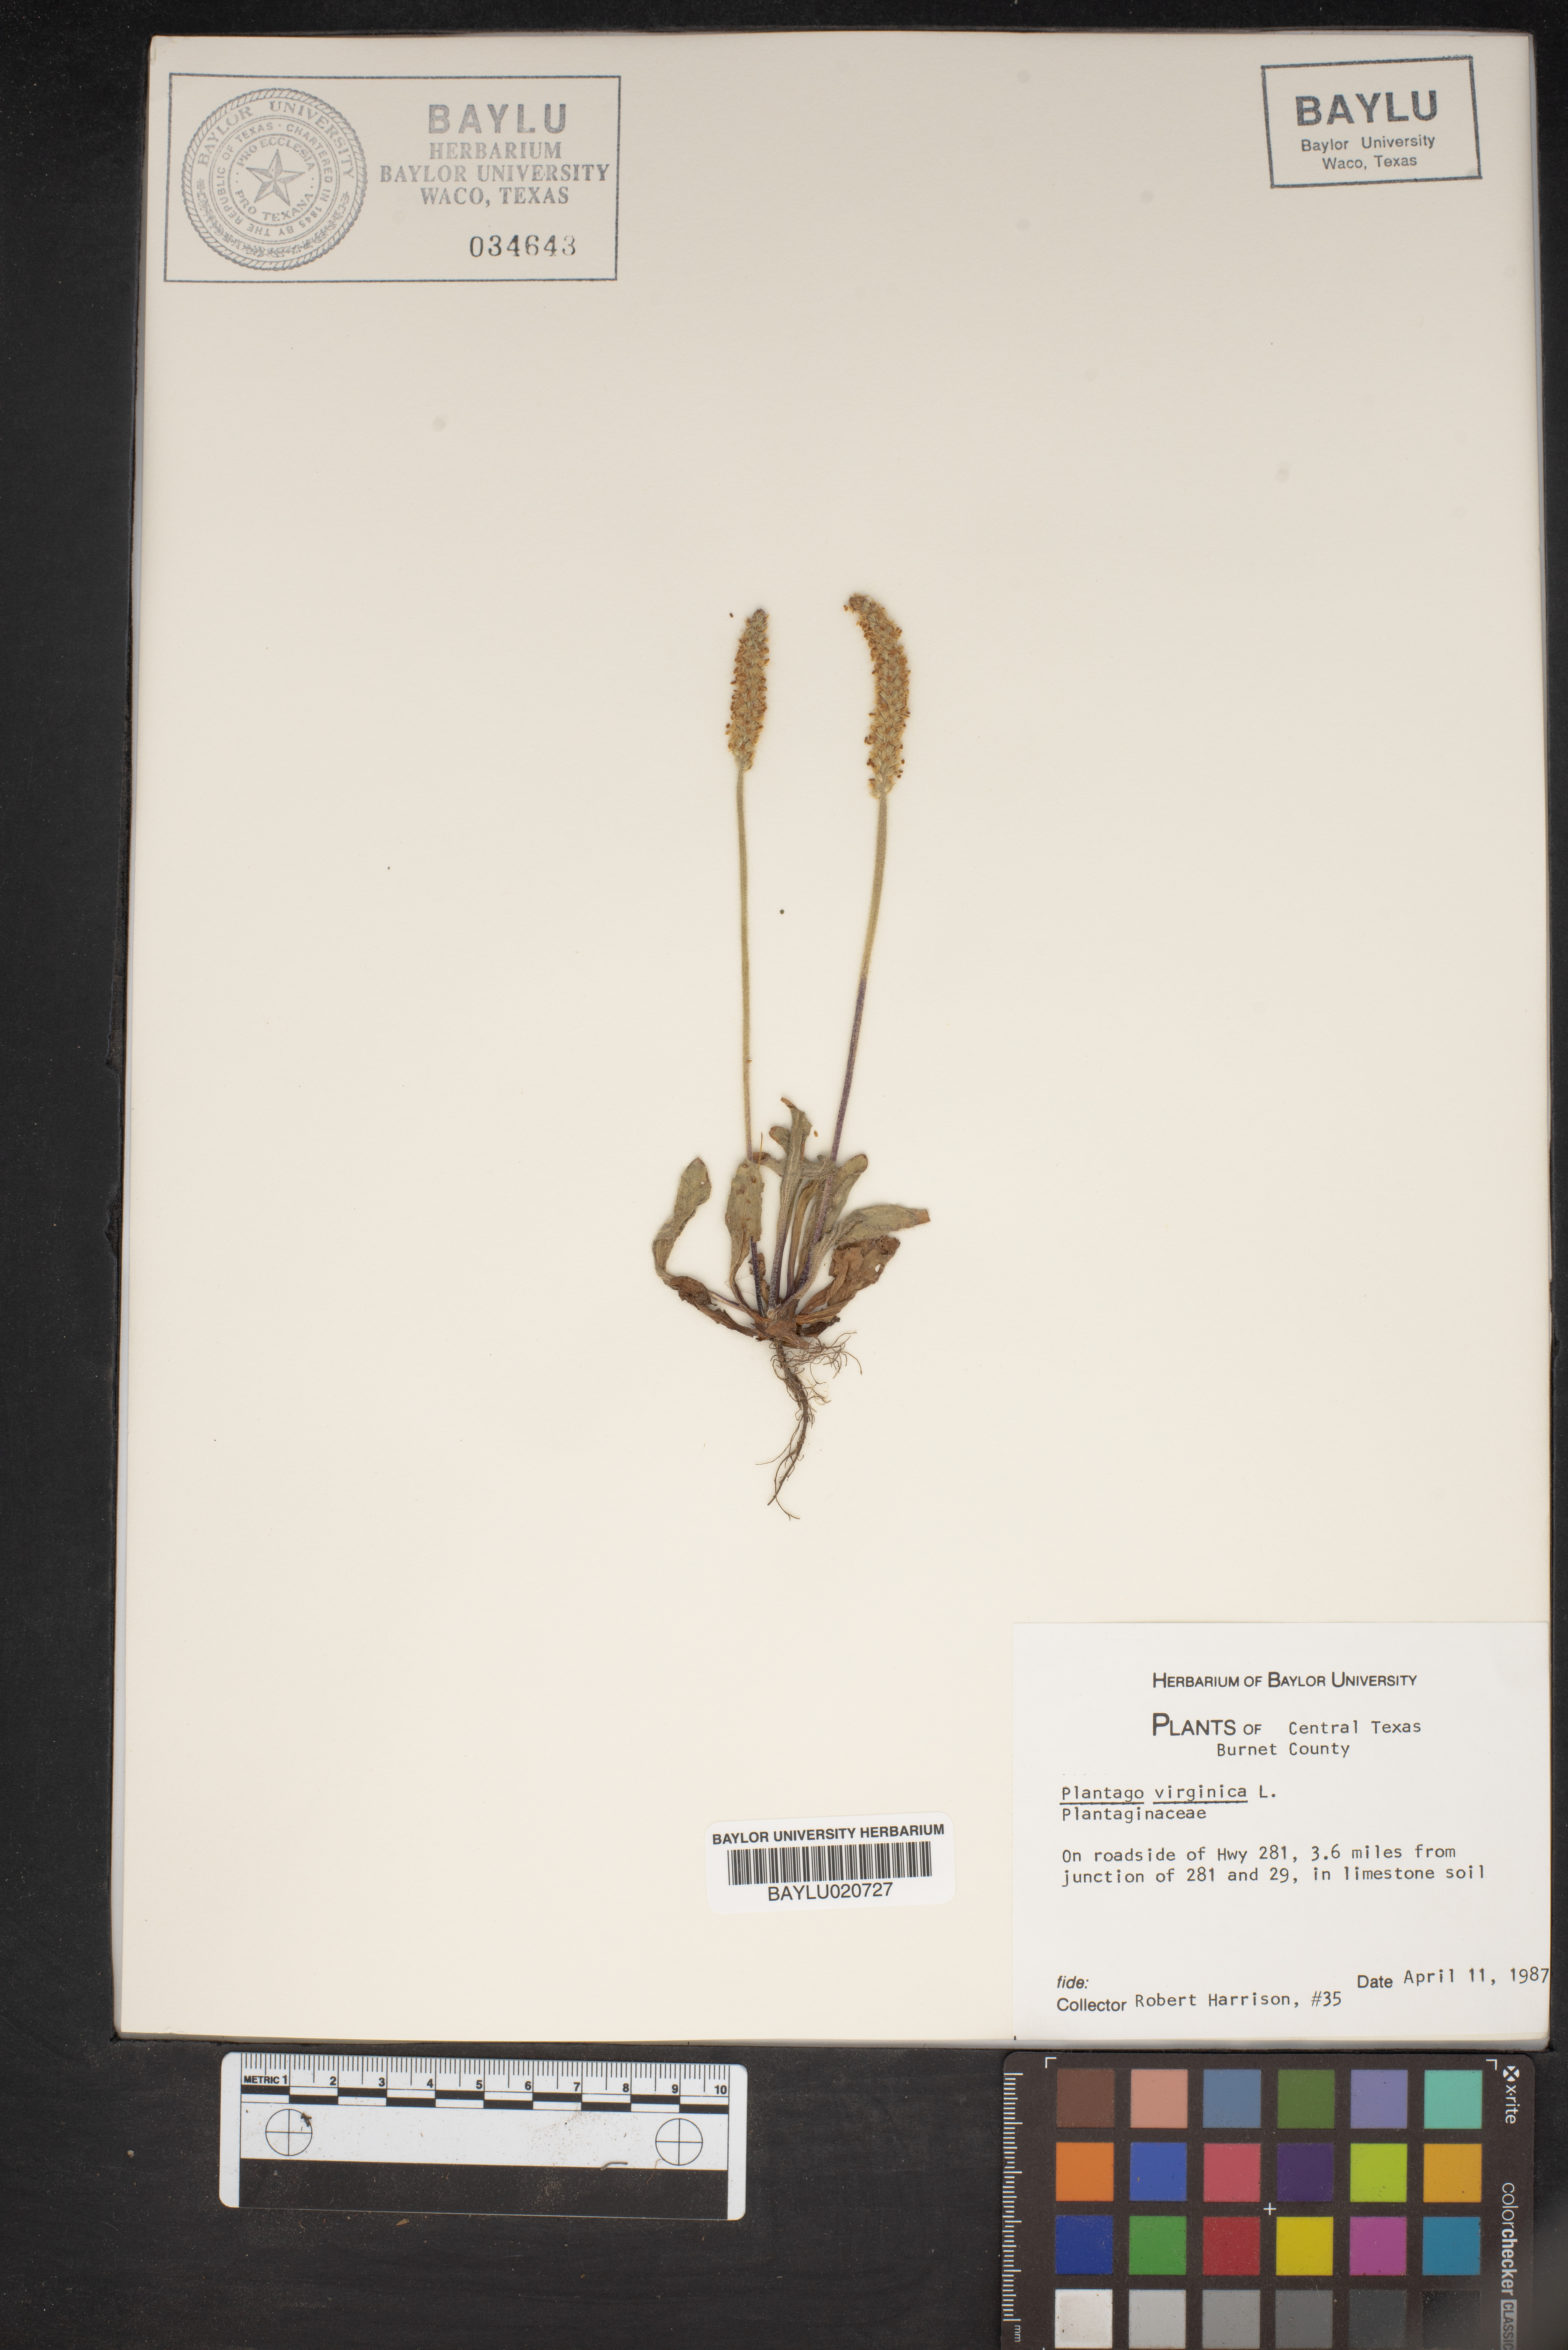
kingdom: Plantae
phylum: Tracheophyta
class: Magnoliopsida
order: Lamiales
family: Plantaginaceae
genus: Plantago
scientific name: Plantago virginica
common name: Hoary plantain
